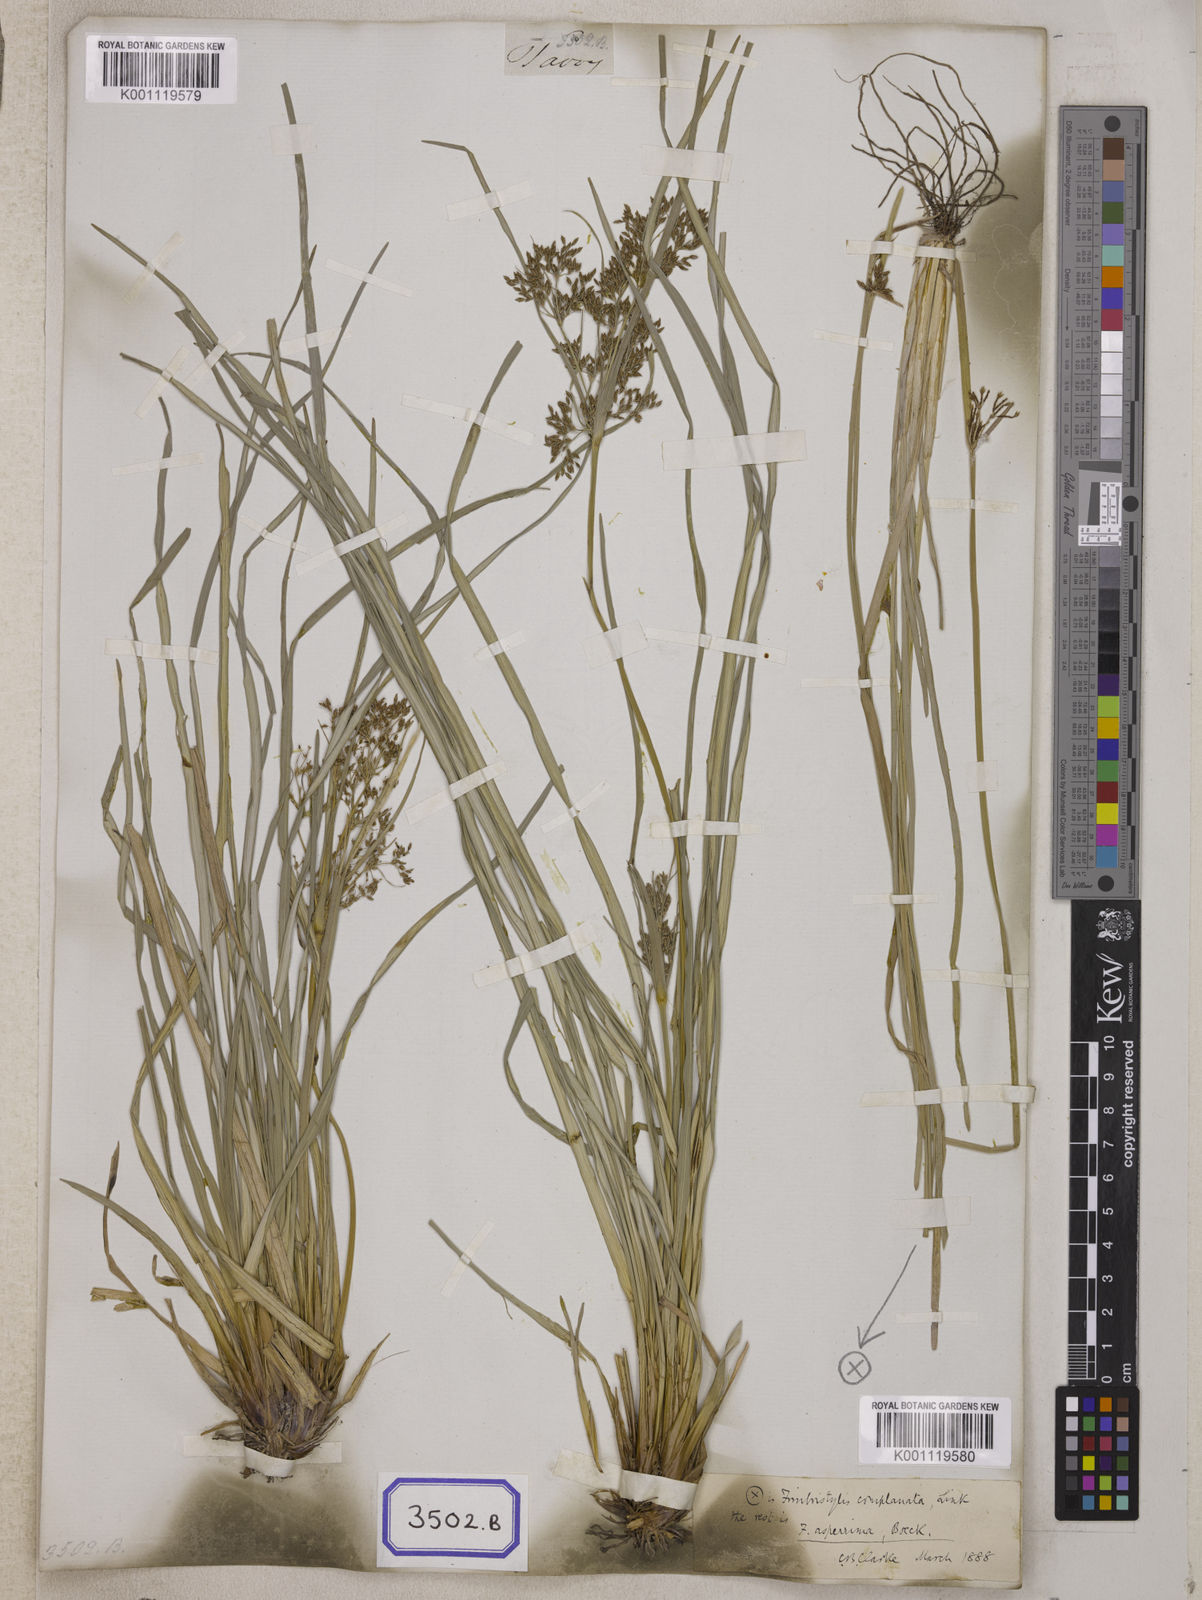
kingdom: Plantae
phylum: Tracheophyta
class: Liliopsida
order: Poales
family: Cyperaceae
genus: Fimbristylis
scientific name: Fimbristylis
